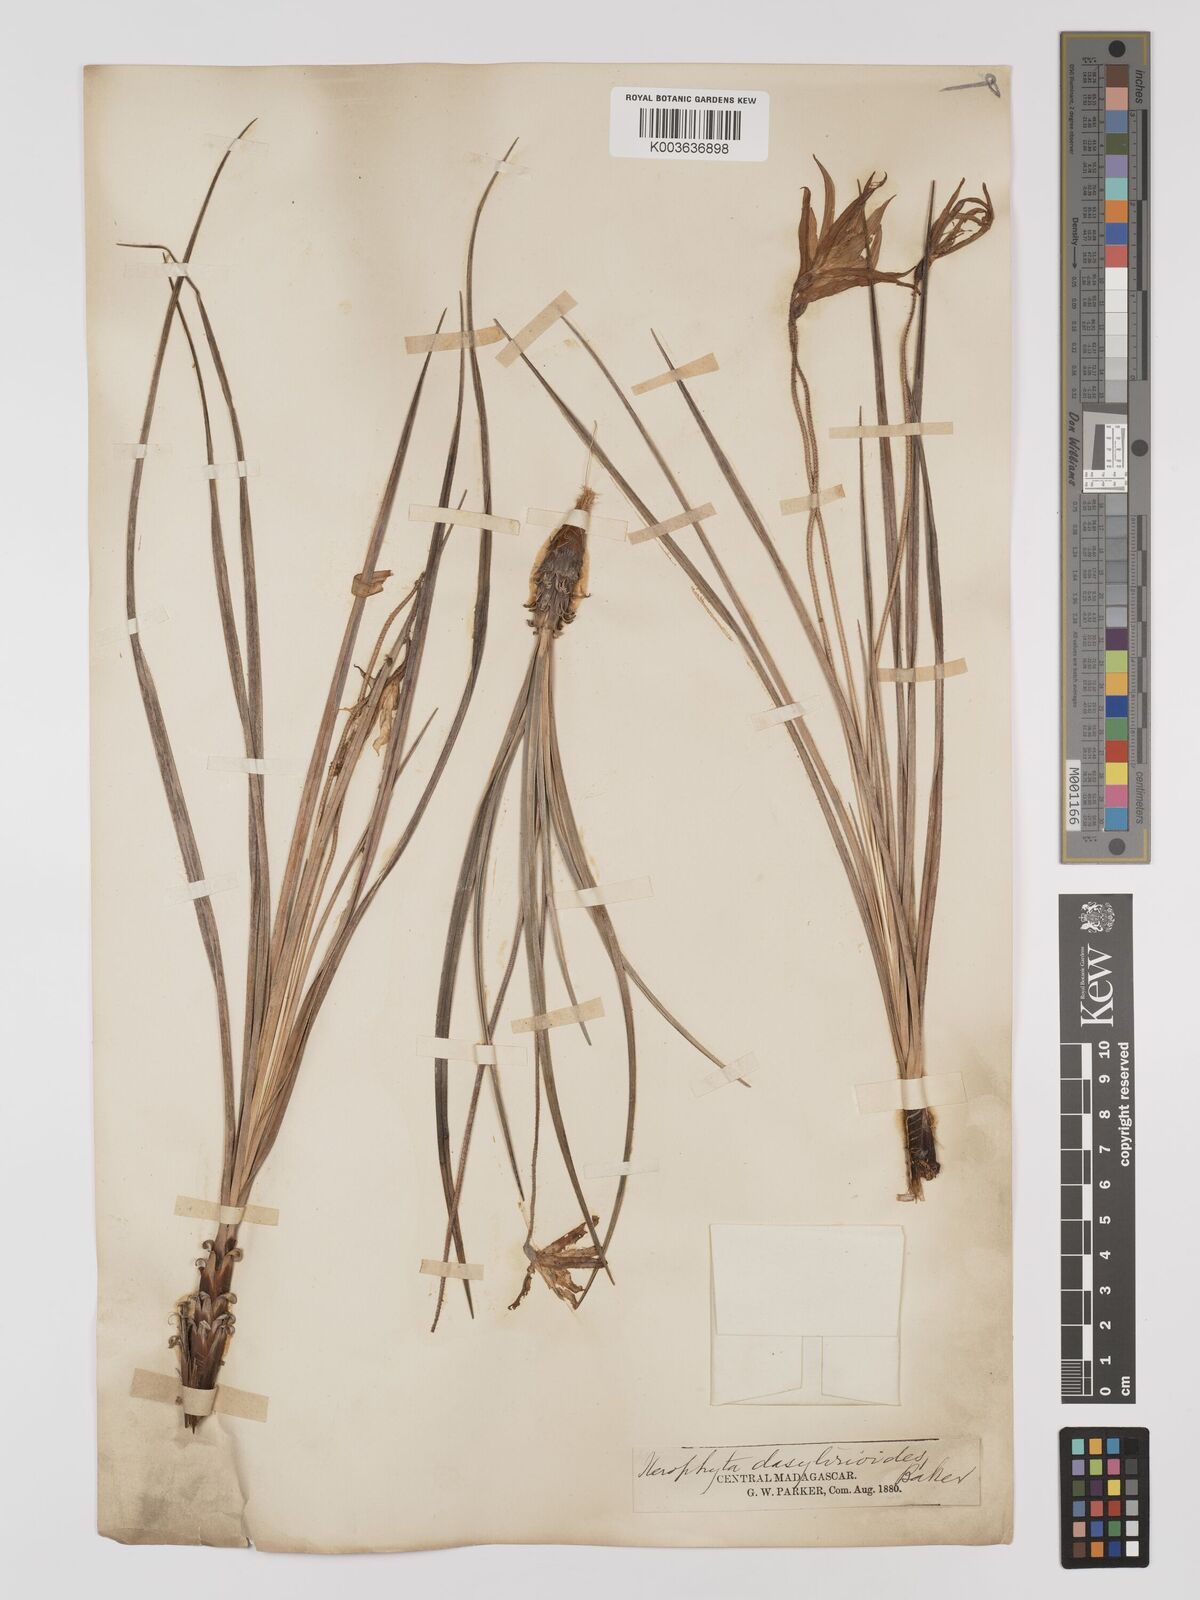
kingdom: Plantae
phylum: Tracheophyta
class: Liliopsida
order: Pandanales
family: Velloziaceae
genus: Xerophyta
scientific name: Xerophyta dasylirioides
